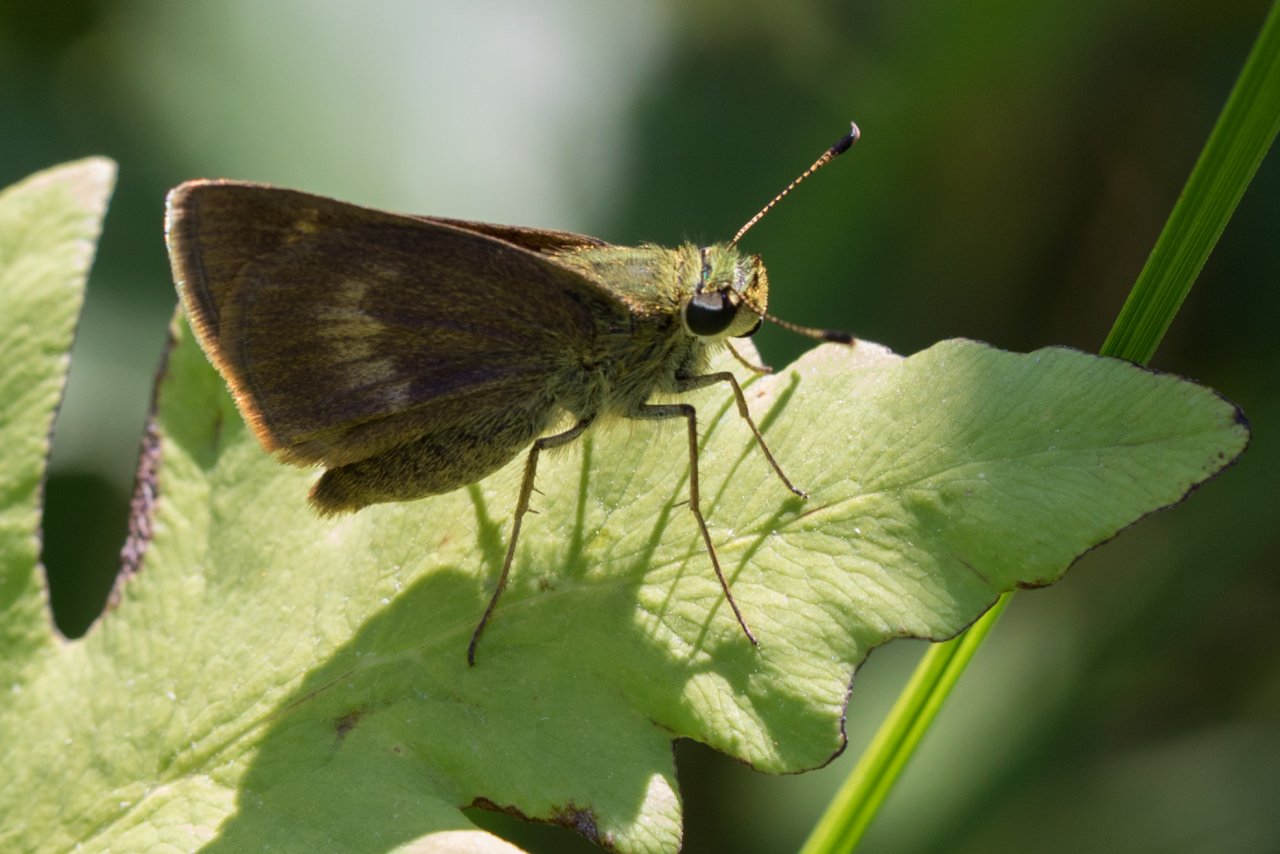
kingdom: Animalia
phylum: Arthropoda
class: Insecta
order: Lepidoptera
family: Hesperiidae
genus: Polites
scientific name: Polites egeremet
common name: Northern Broken-Dash
